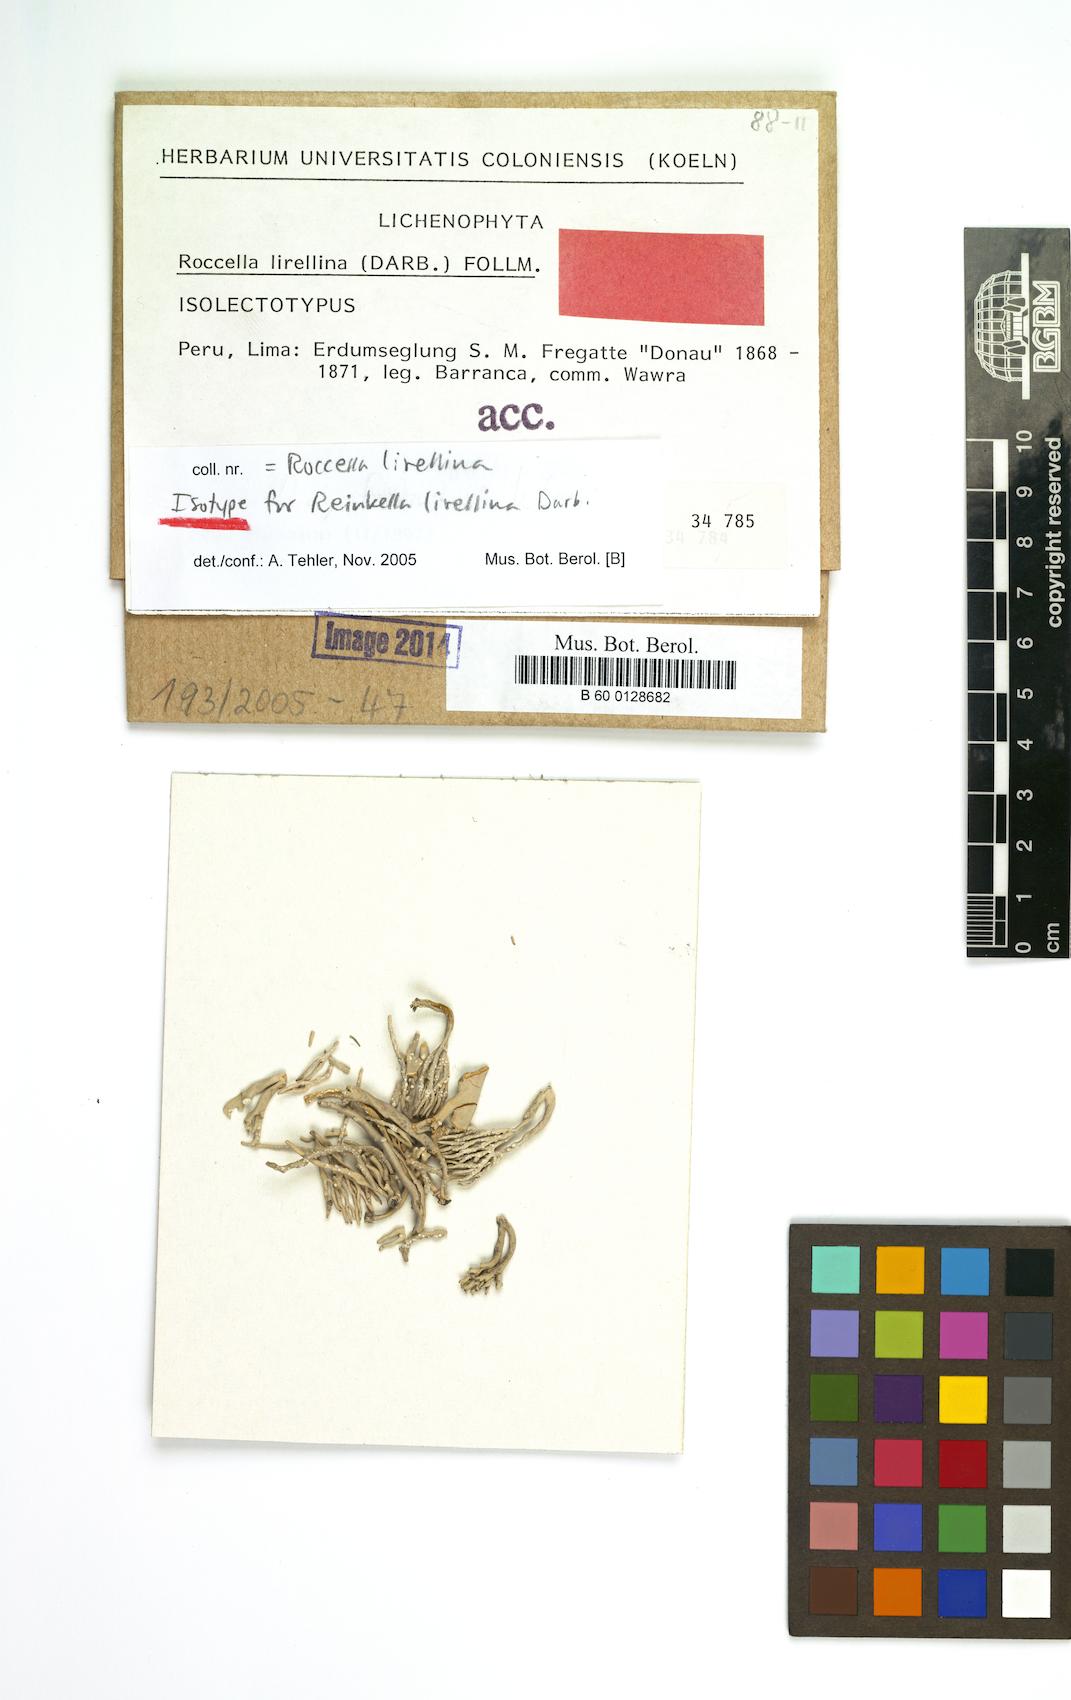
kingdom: Fungi
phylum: Ascomycota
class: Arthoniomycetes
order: Arthoniales
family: Roccellaceae
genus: Reinkella
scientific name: Reinkella lirellina
